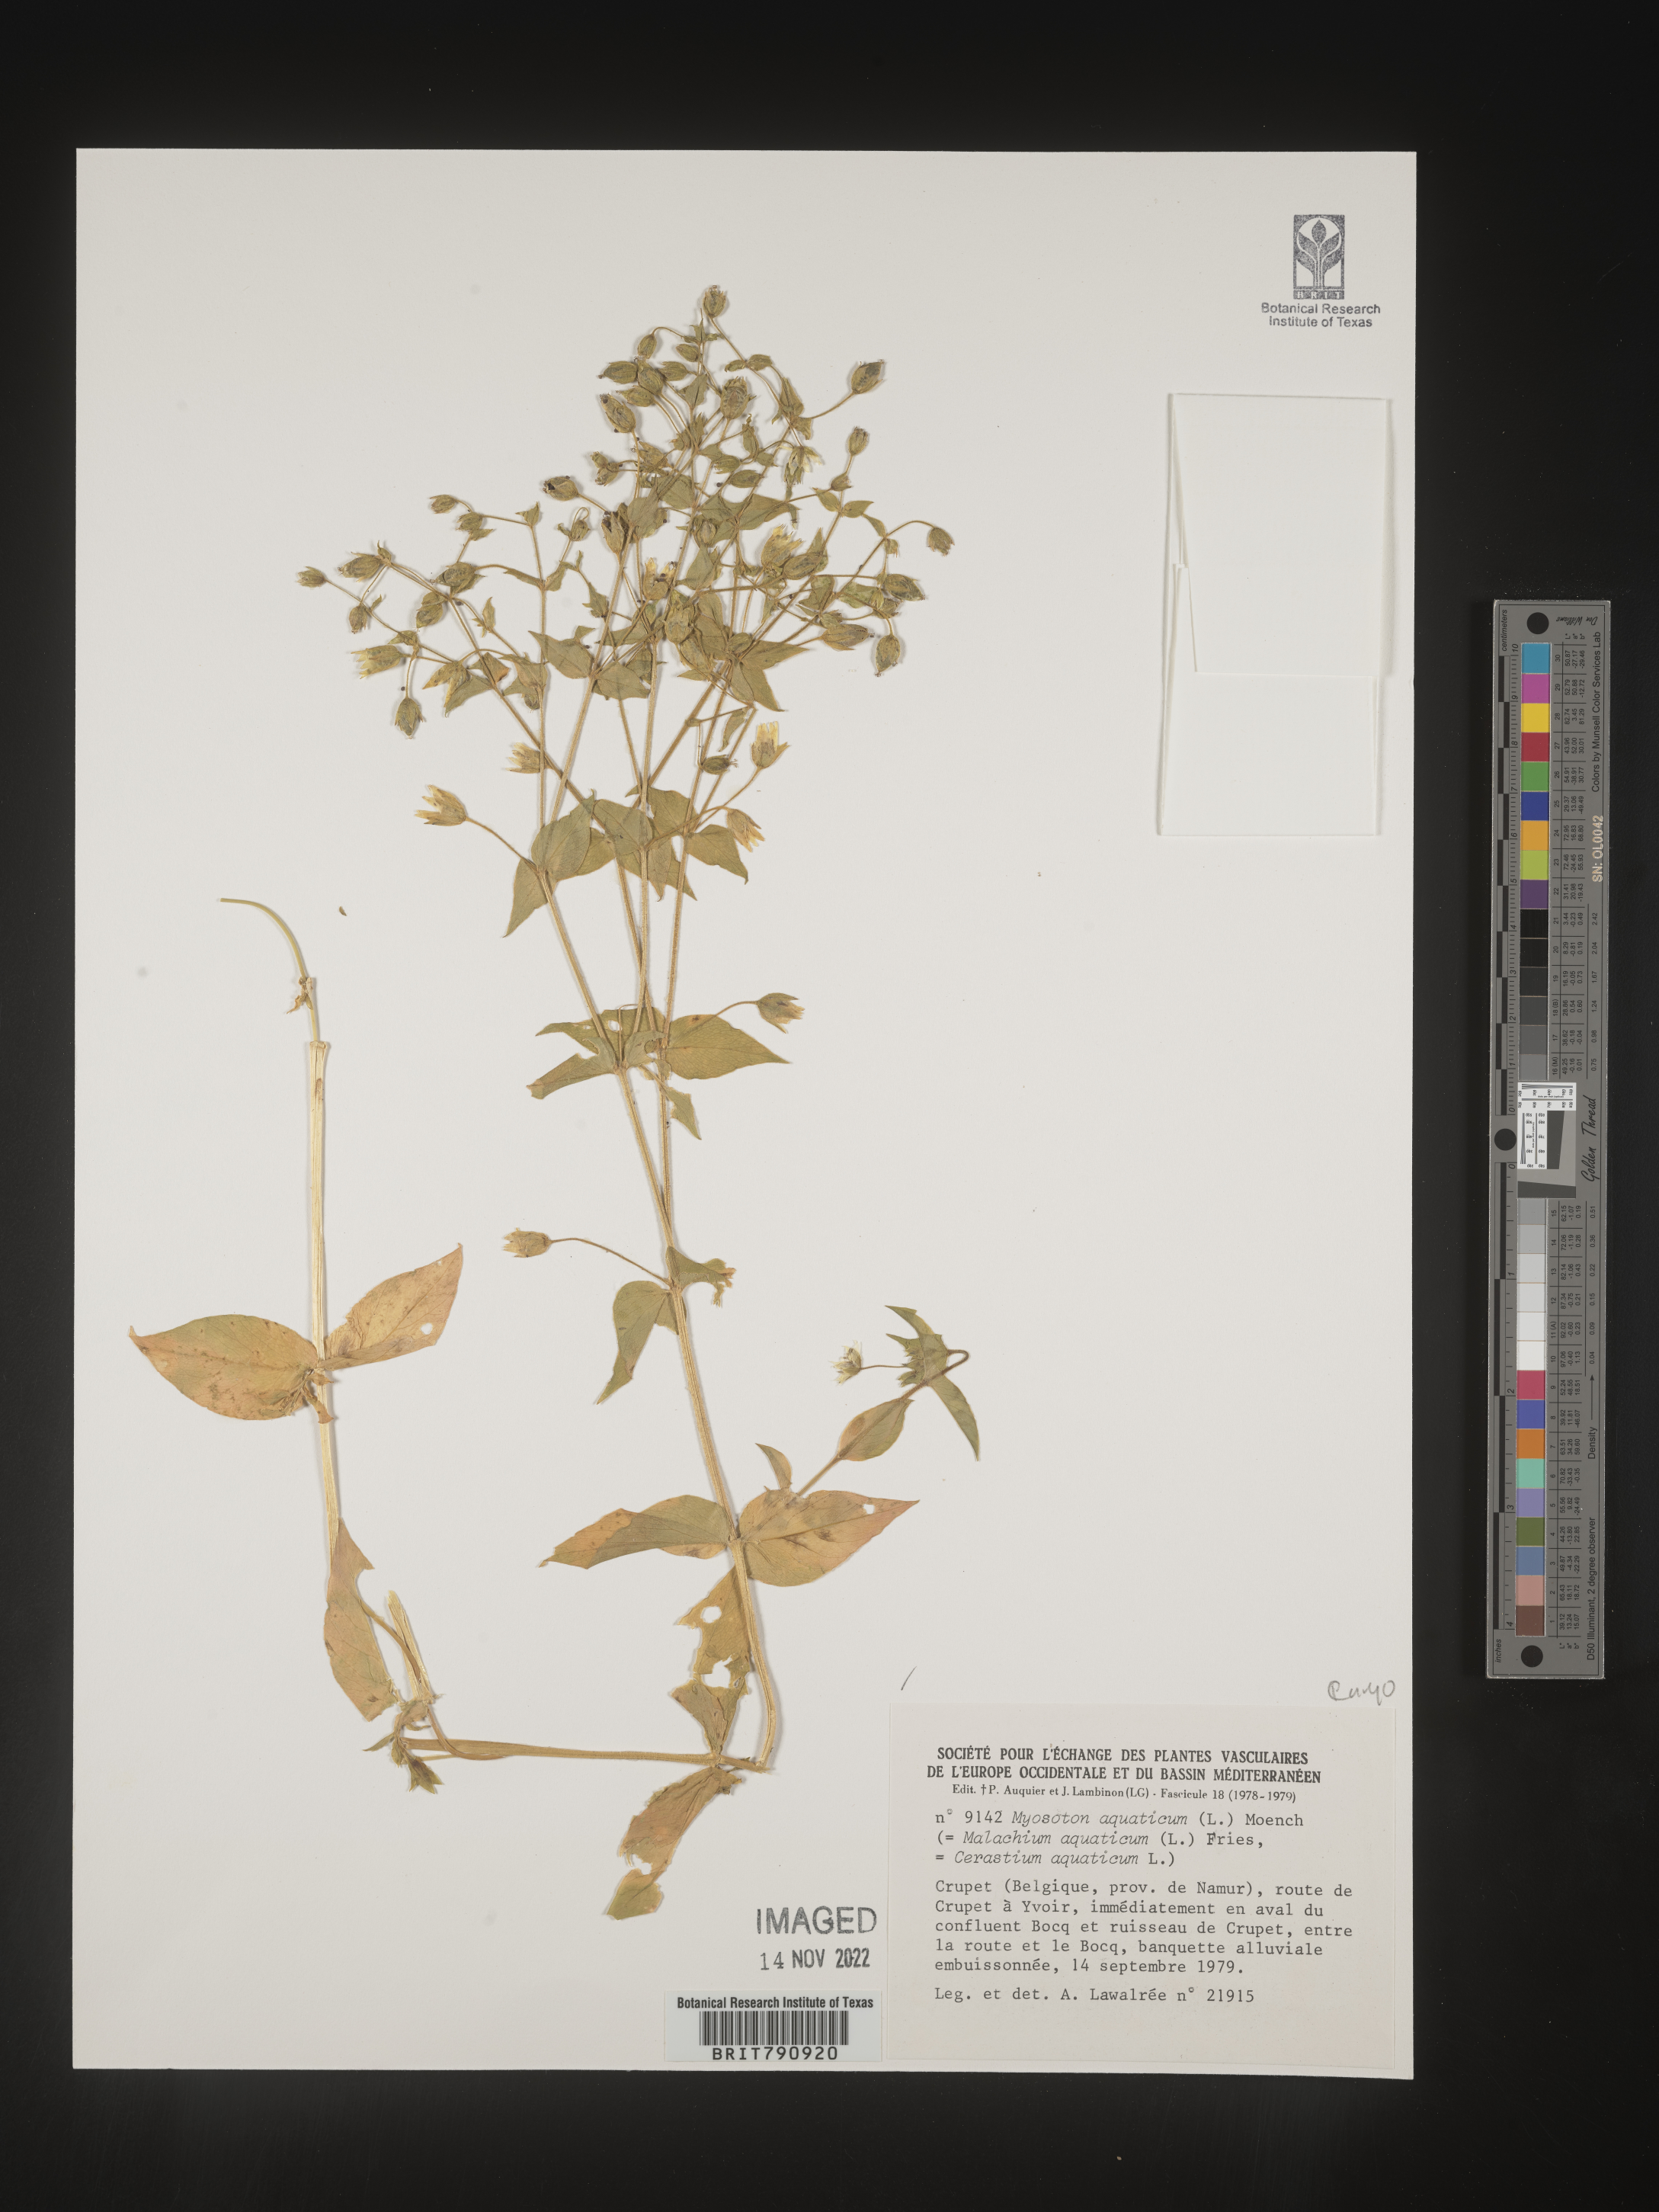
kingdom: Plantae
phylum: Tracheophyta
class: Magnoliopsida
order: Caryophyllales
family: Caryophyllaceae
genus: Stellaria
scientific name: Stellaria
